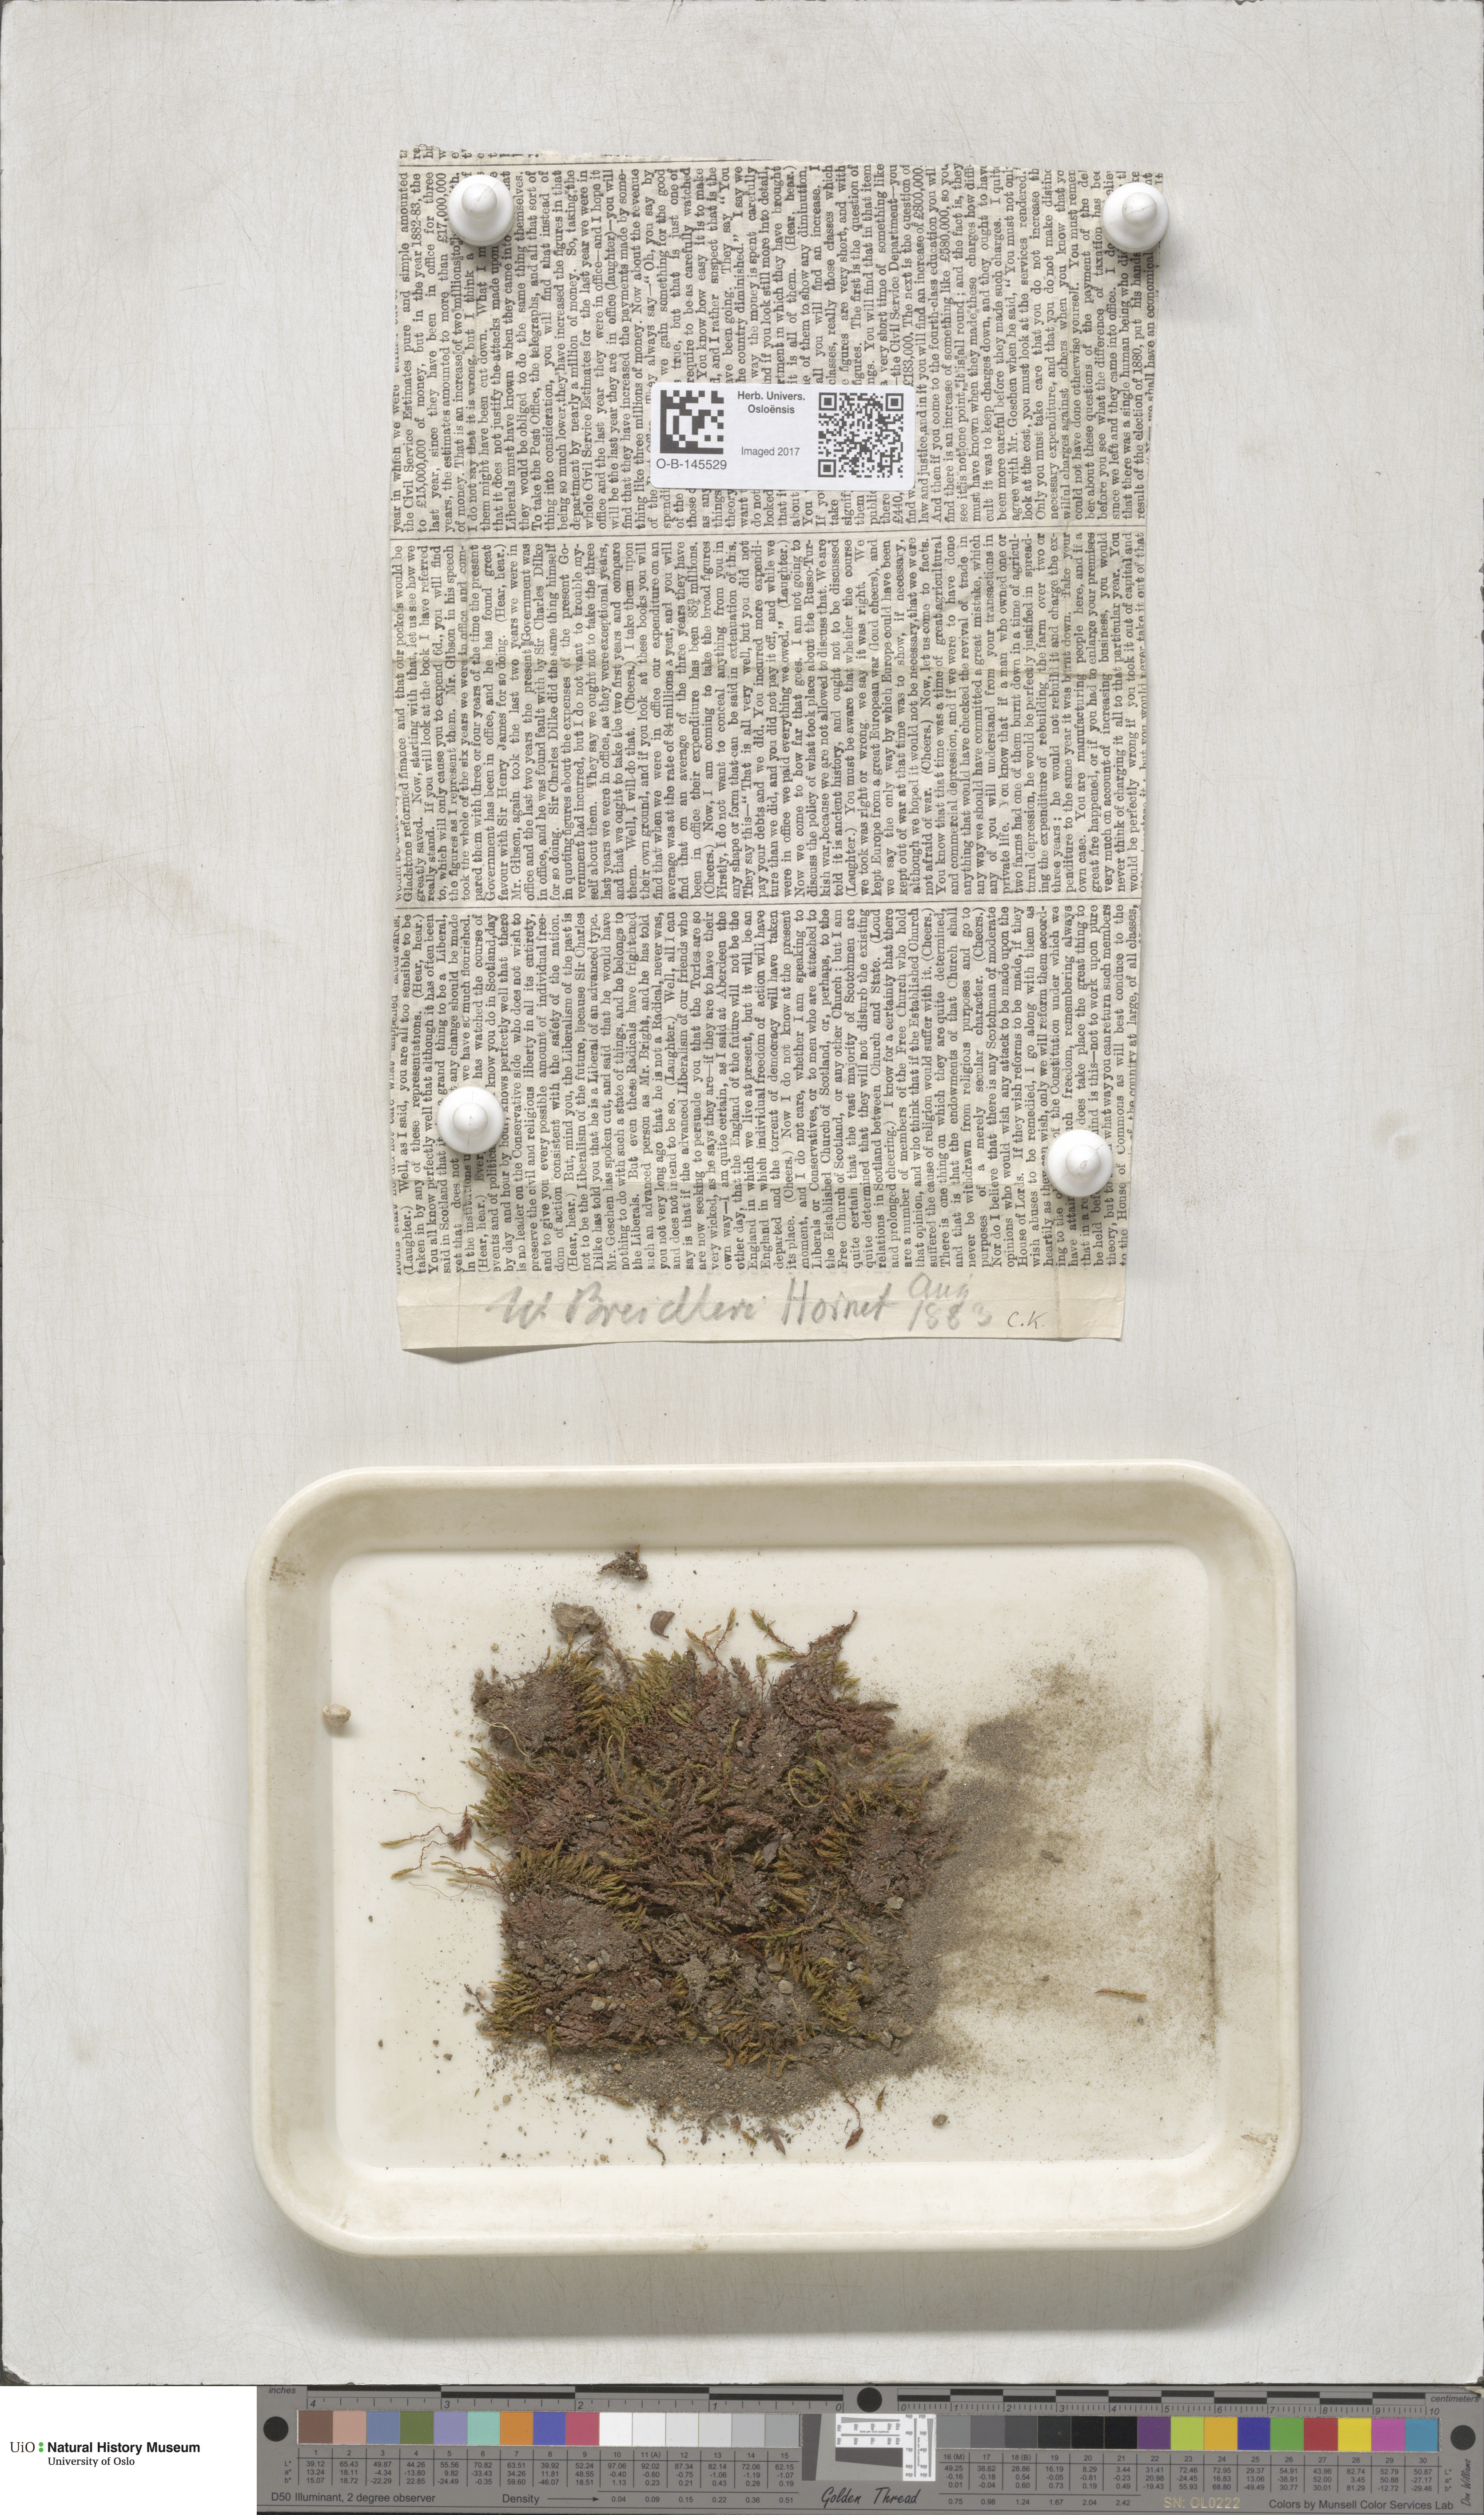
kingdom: Plantae
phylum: Bryophyta
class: Bryopsida
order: Bryales
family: Mniaceae
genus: Pohlia
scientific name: Pohlia ludwigii
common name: Ludwig's thread-moss
